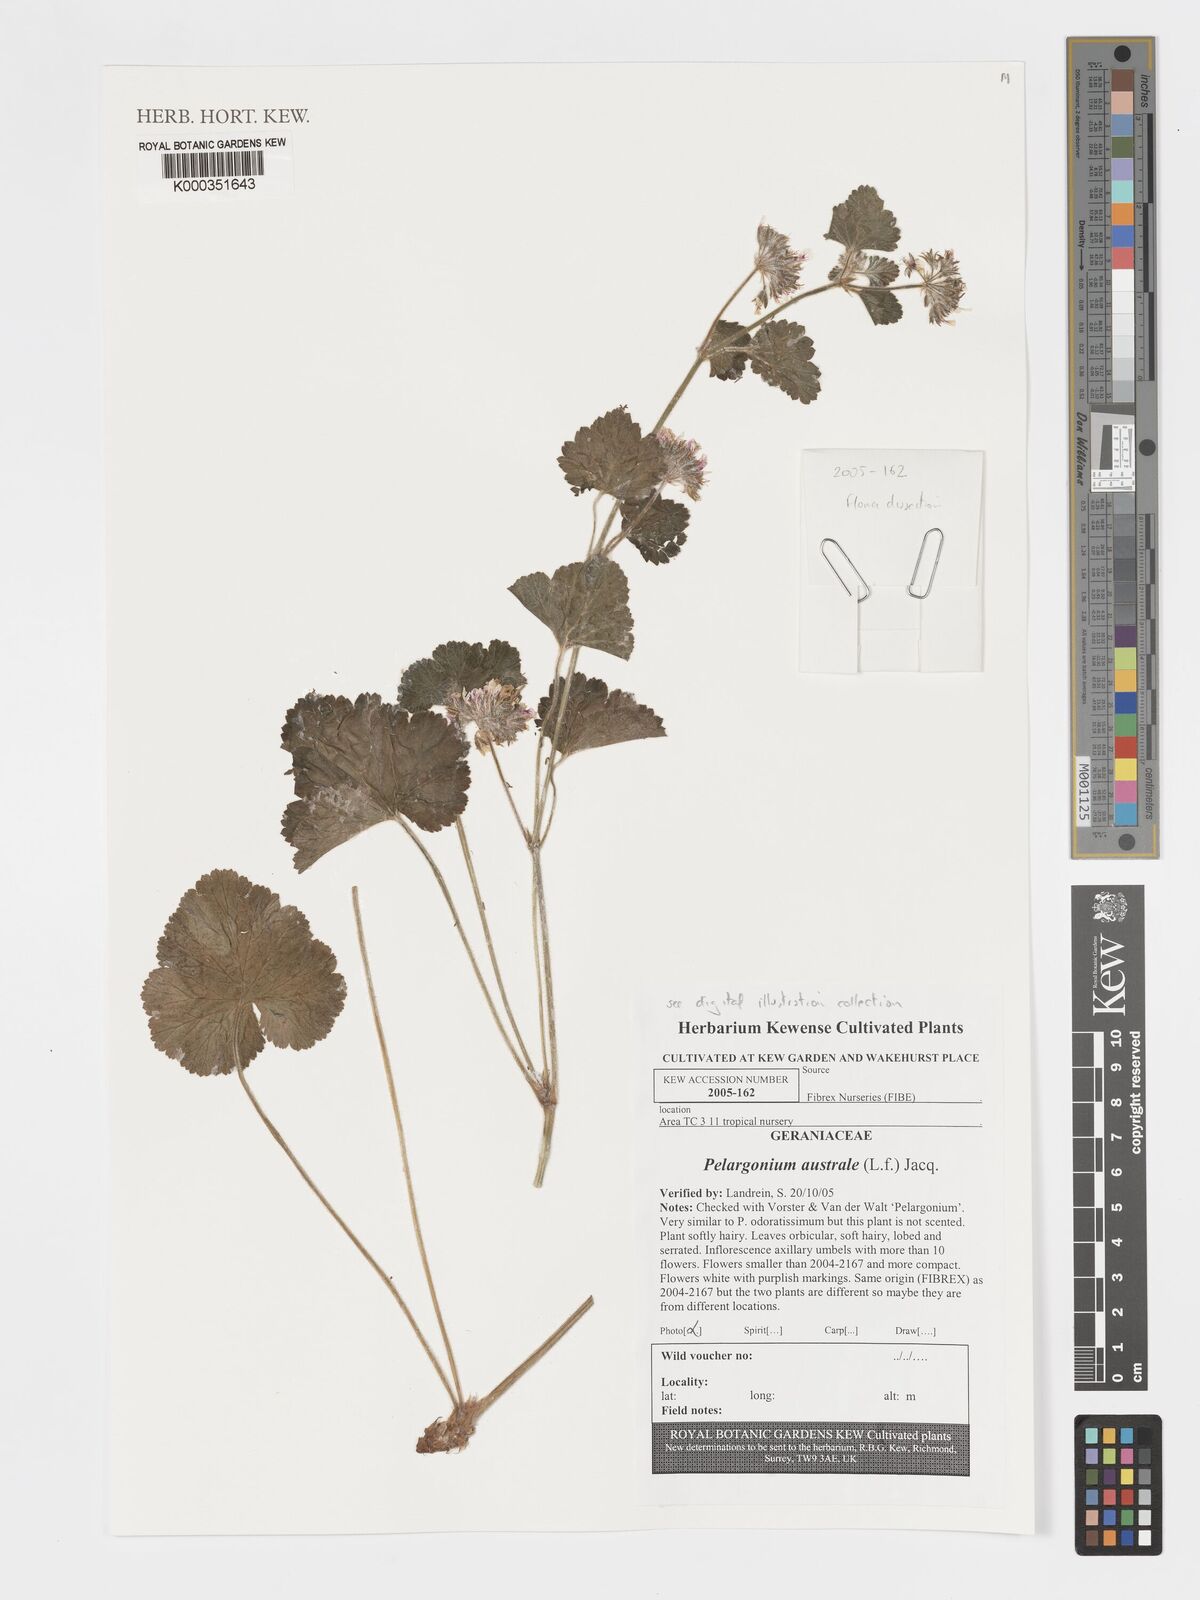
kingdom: Plantae
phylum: Tracheophyta
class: Magnoliopsida
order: Geraniales
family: Geraniaceae
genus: Pelargonium
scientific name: Pelargonium
